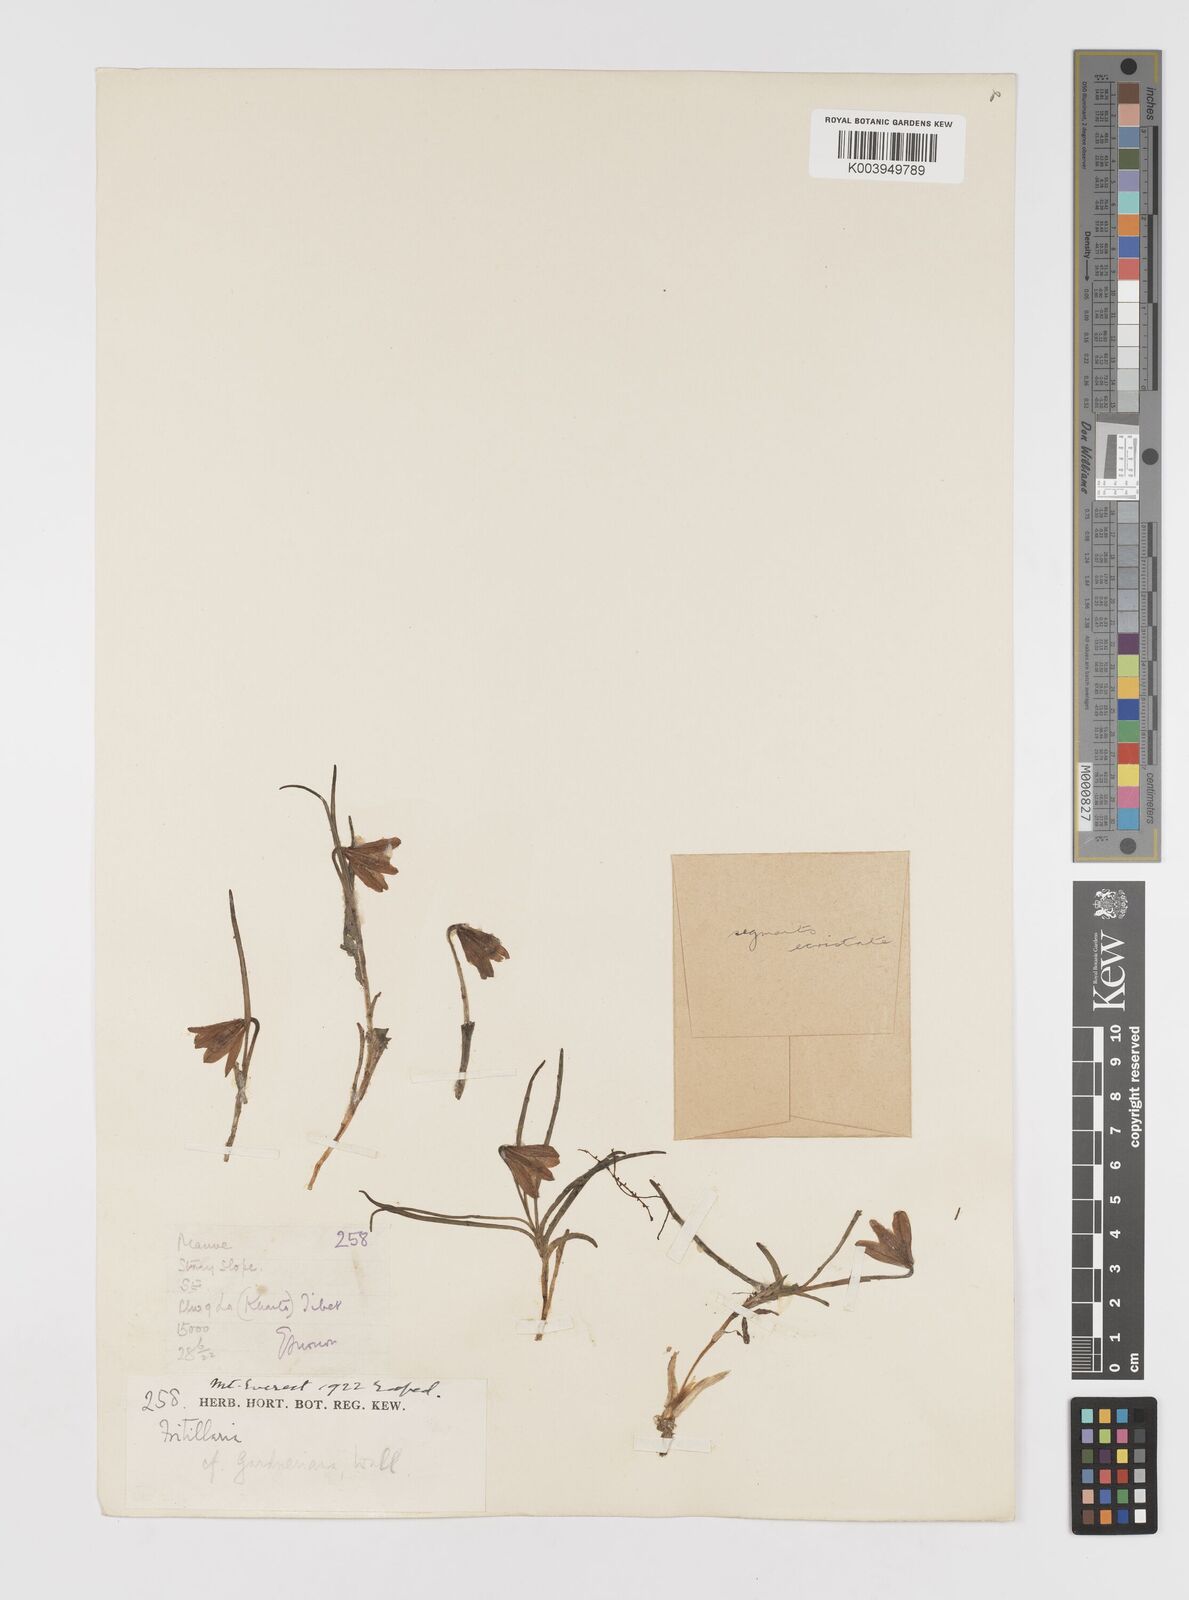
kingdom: Plantae
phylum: Tracheophyta
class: Liliopsida
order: Liliales
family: Liliaceae
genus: Lilium
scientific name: Lilium nanum
